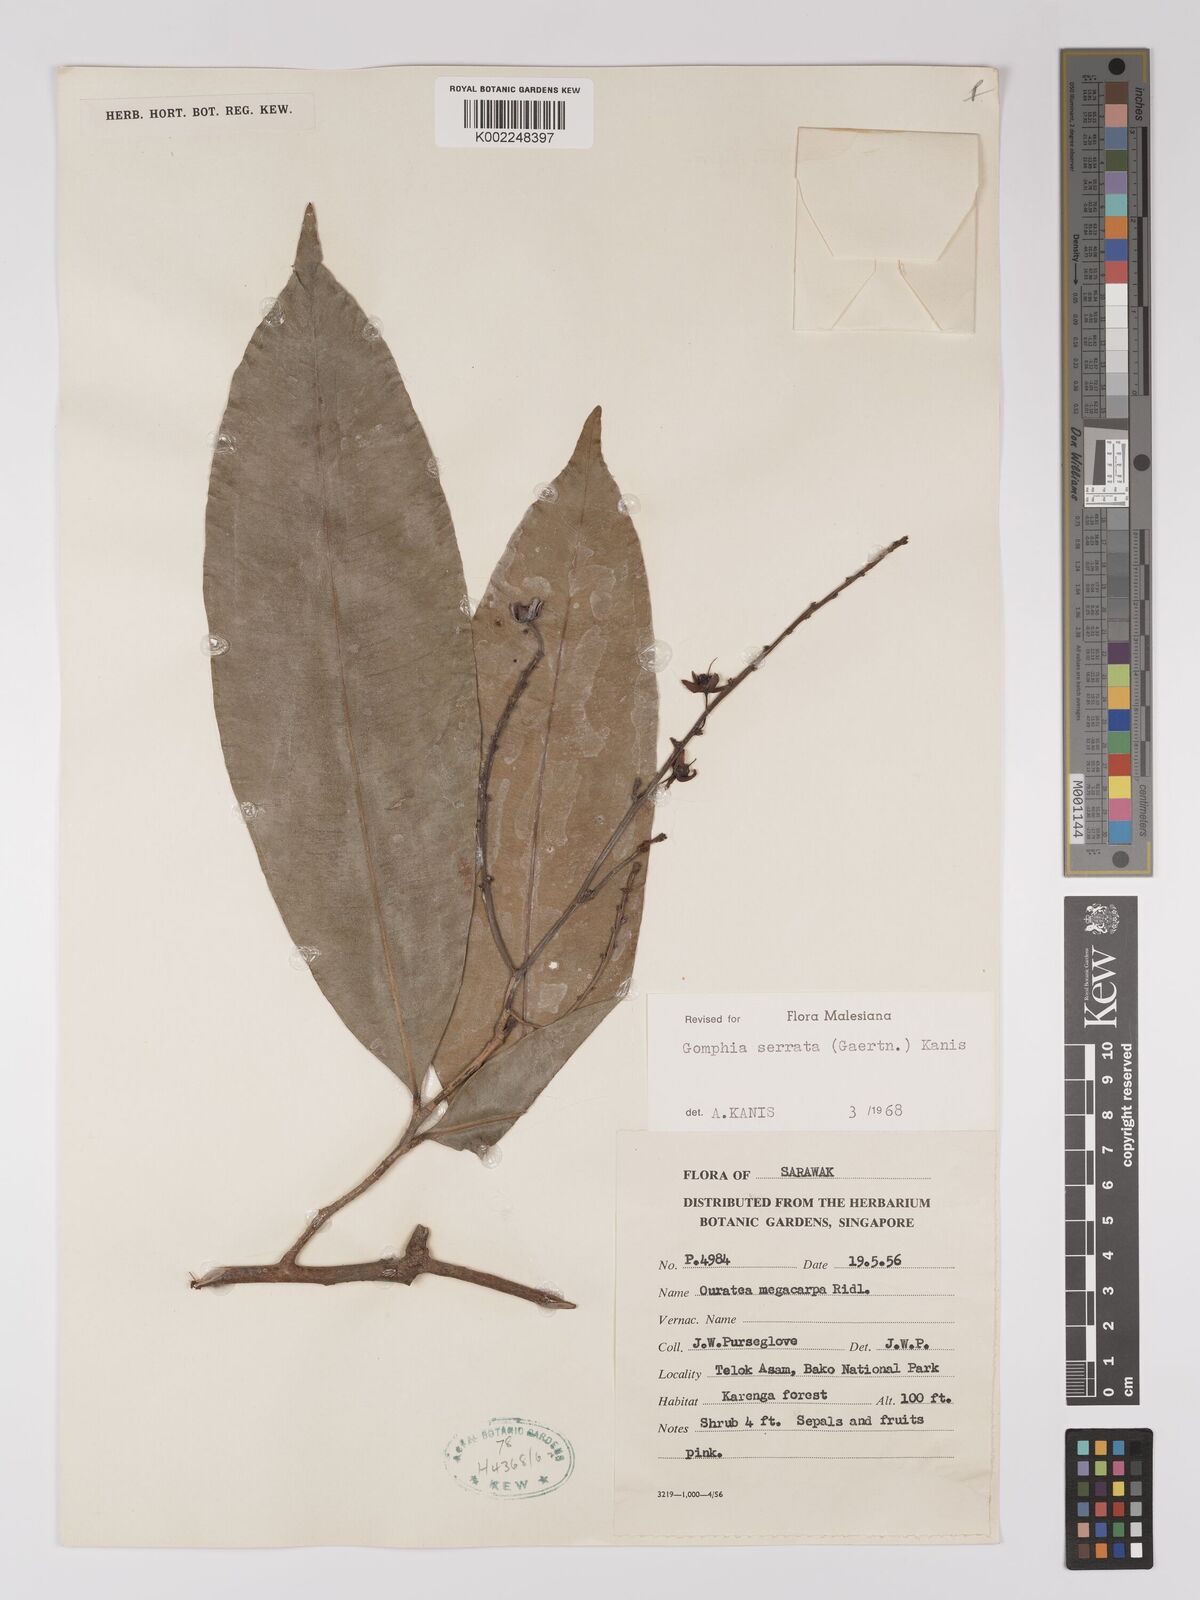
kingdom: Plantae
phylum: Tracheophyta
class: Magnoliopsida
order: Malpighiales
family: Ochnaceae
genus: Gomphia
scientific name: Gomphia serrata
